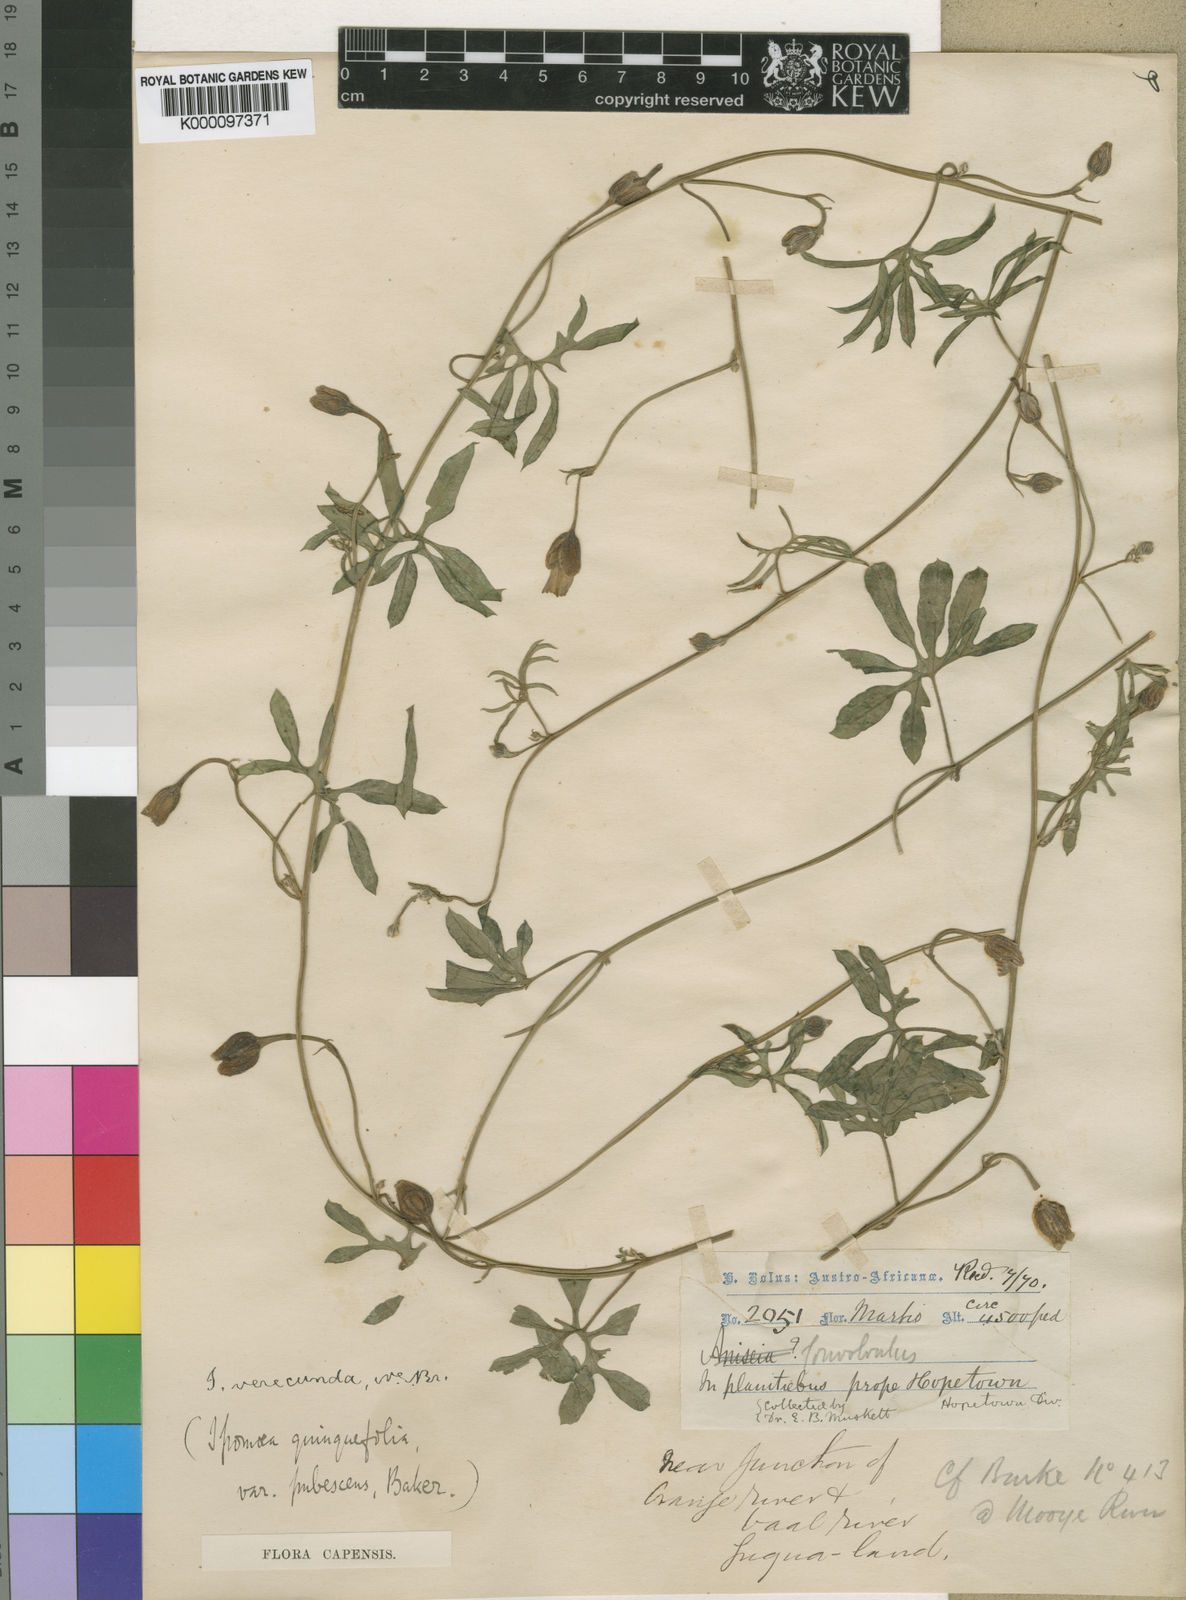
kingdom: Plantae
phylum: Tracheophyta
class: Magnoliopsida
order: Solanales
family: Convolvulaceae
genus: Merremia
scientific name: Merremia verecunda
